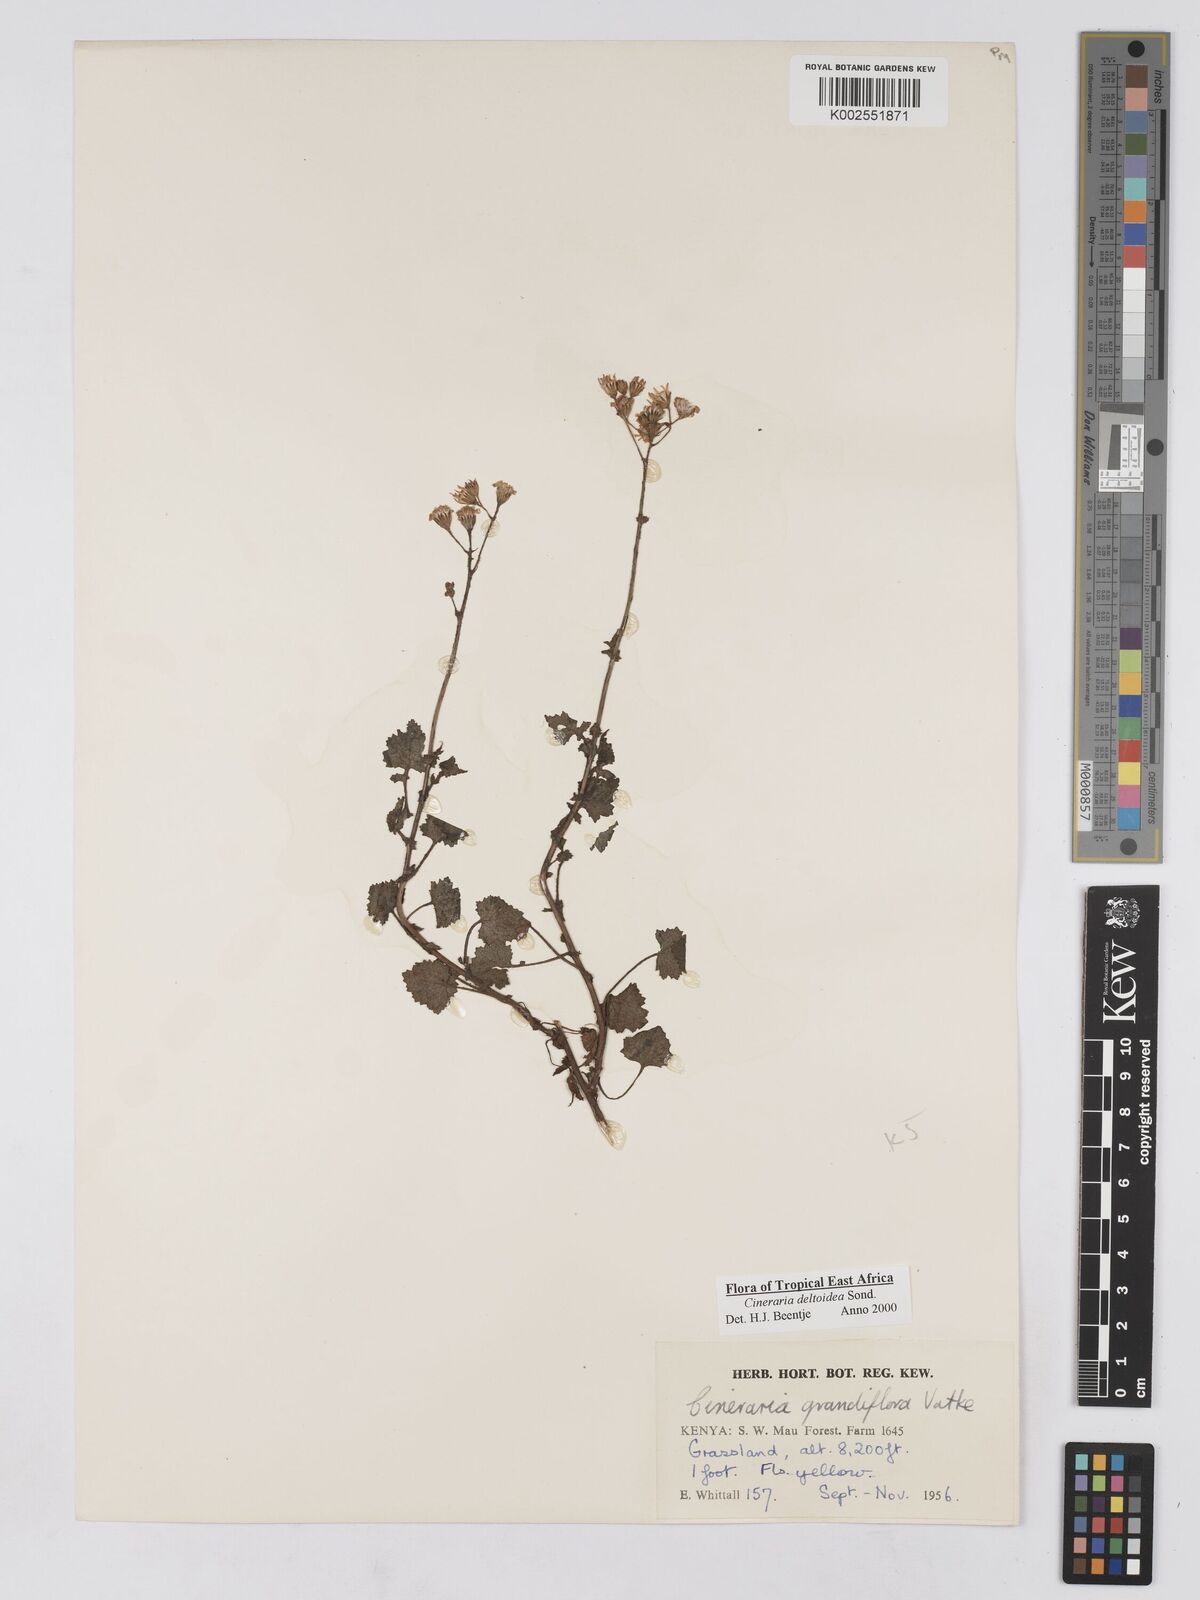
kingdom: Plantae
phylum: Tracheophyta
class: Magnoliopsida
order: Asterales
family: Asteraceae
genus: Cineraria
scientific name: Cineraria deltoidea
